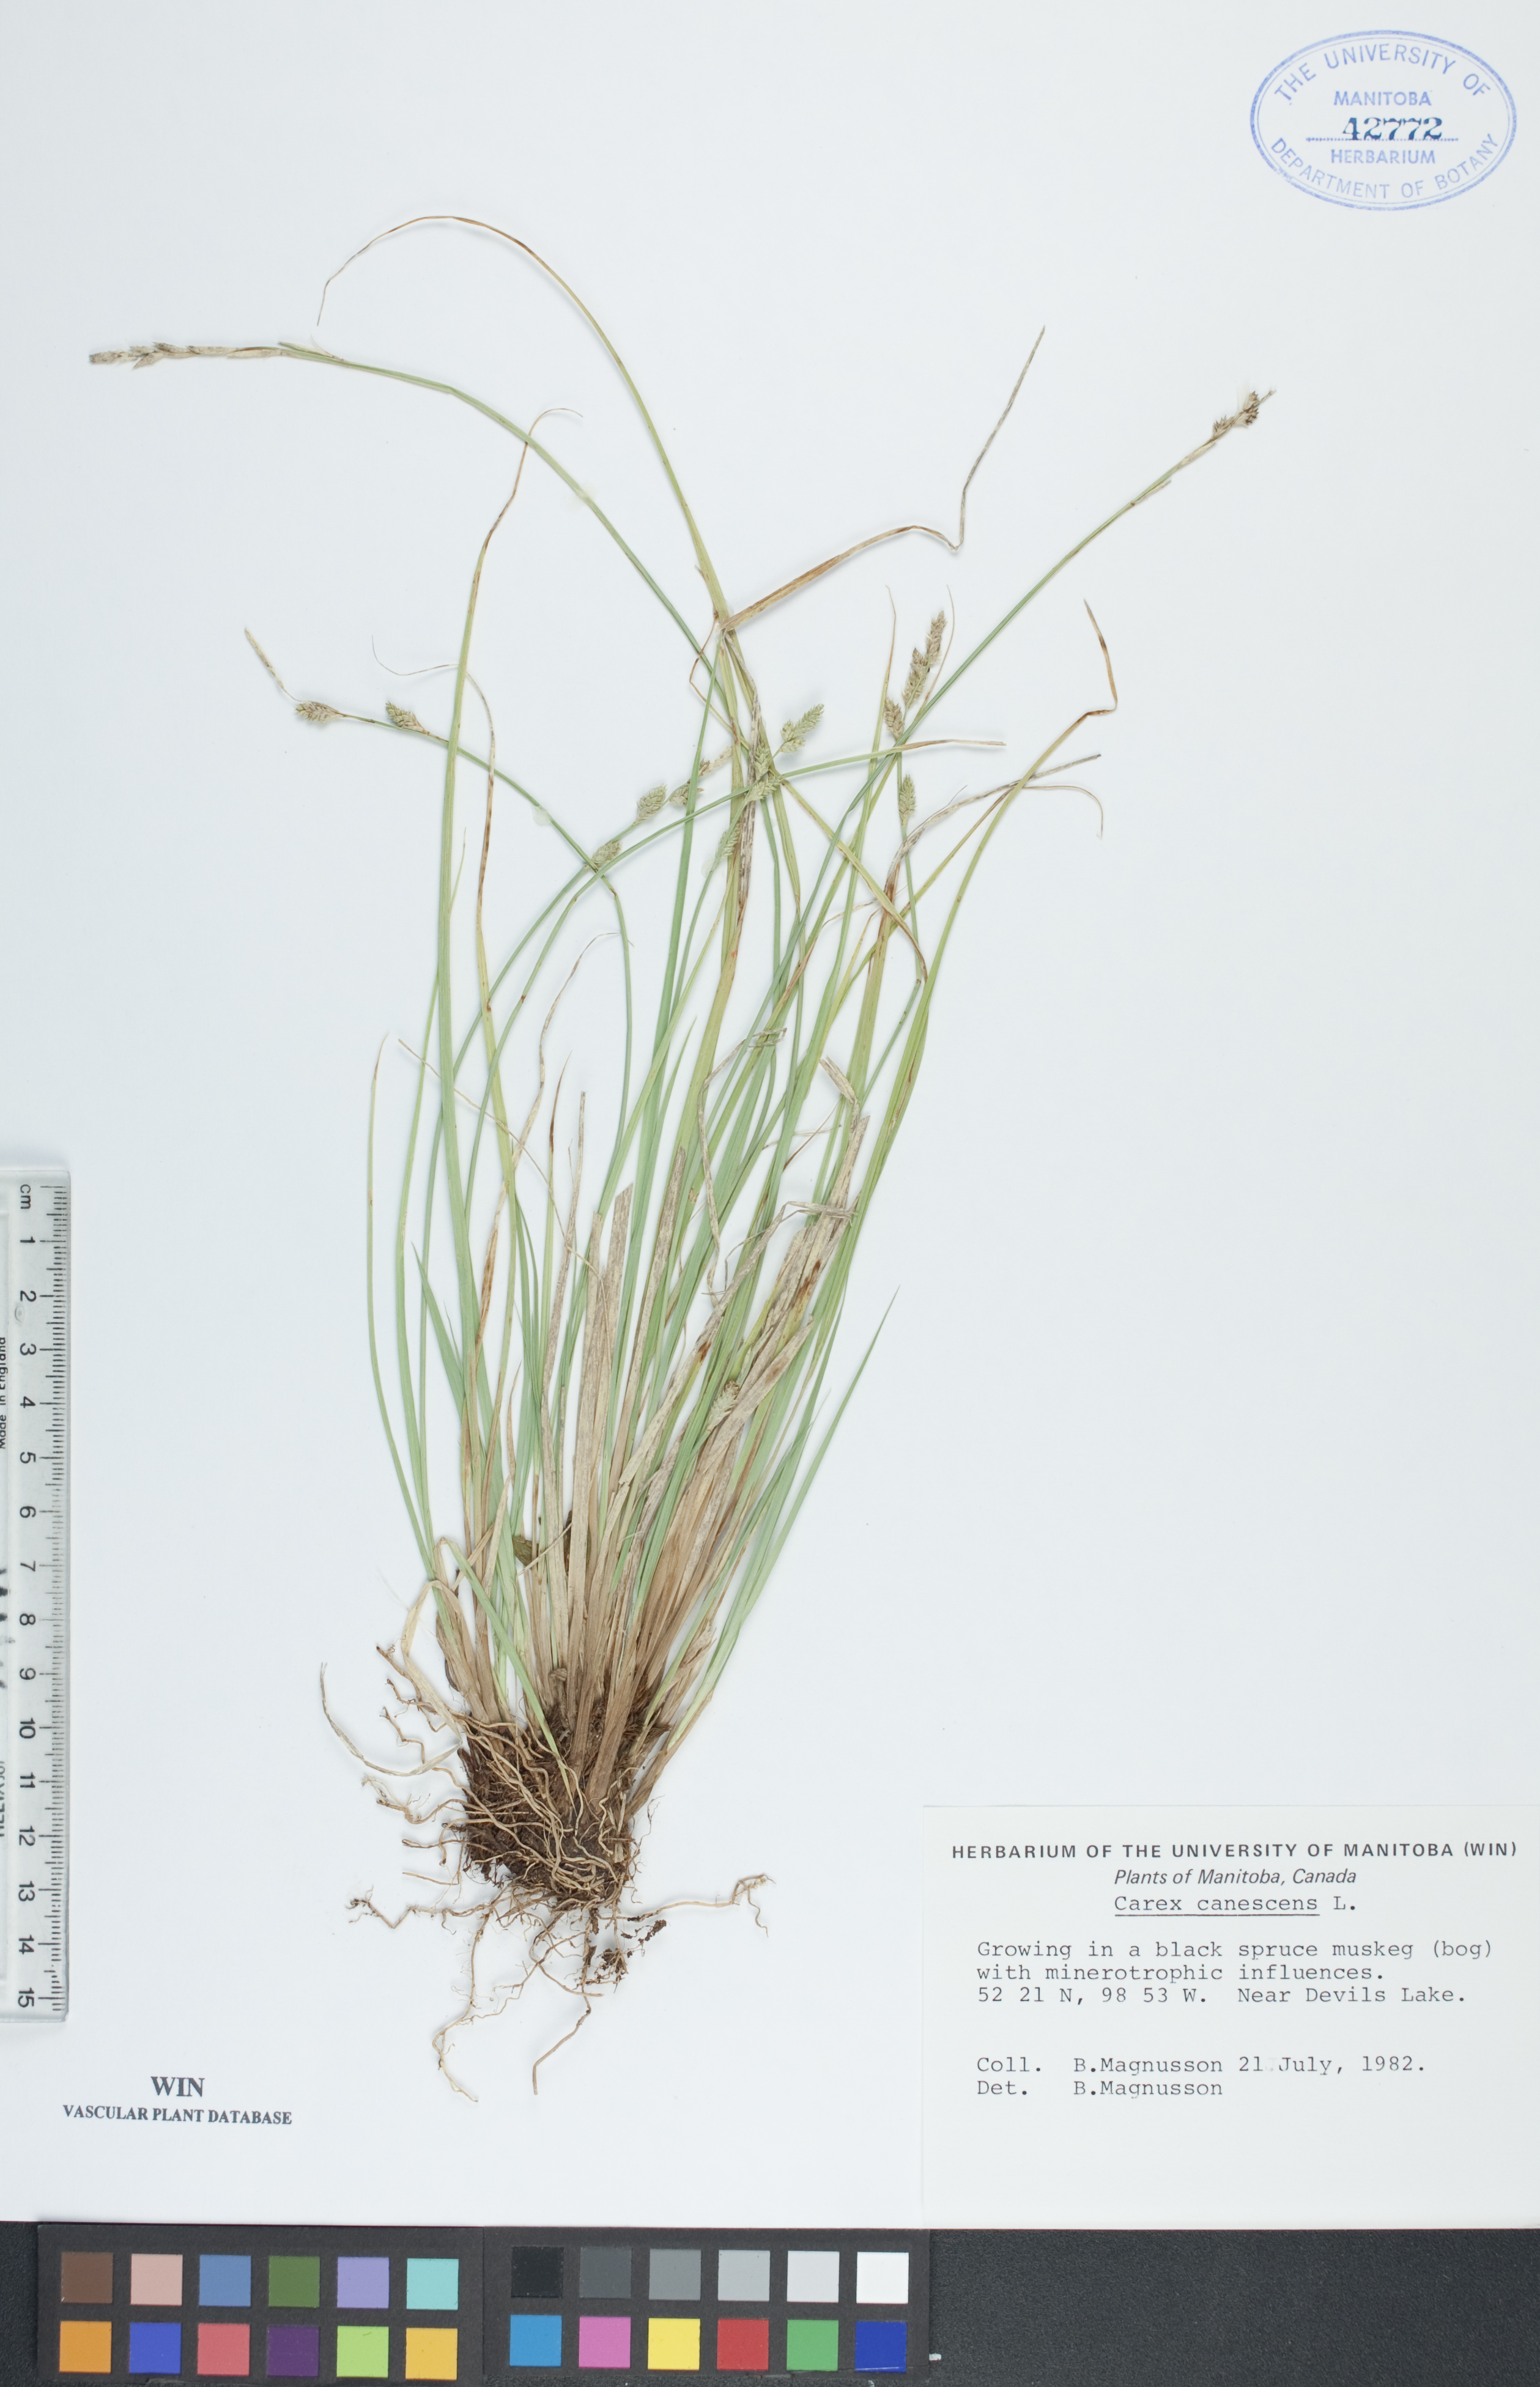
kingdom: Plantae
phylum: Tracheophyta
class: Liliopsida
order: Poales
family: Cyperaceae
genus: Carex
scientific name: Carex canescens
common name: White sedge
